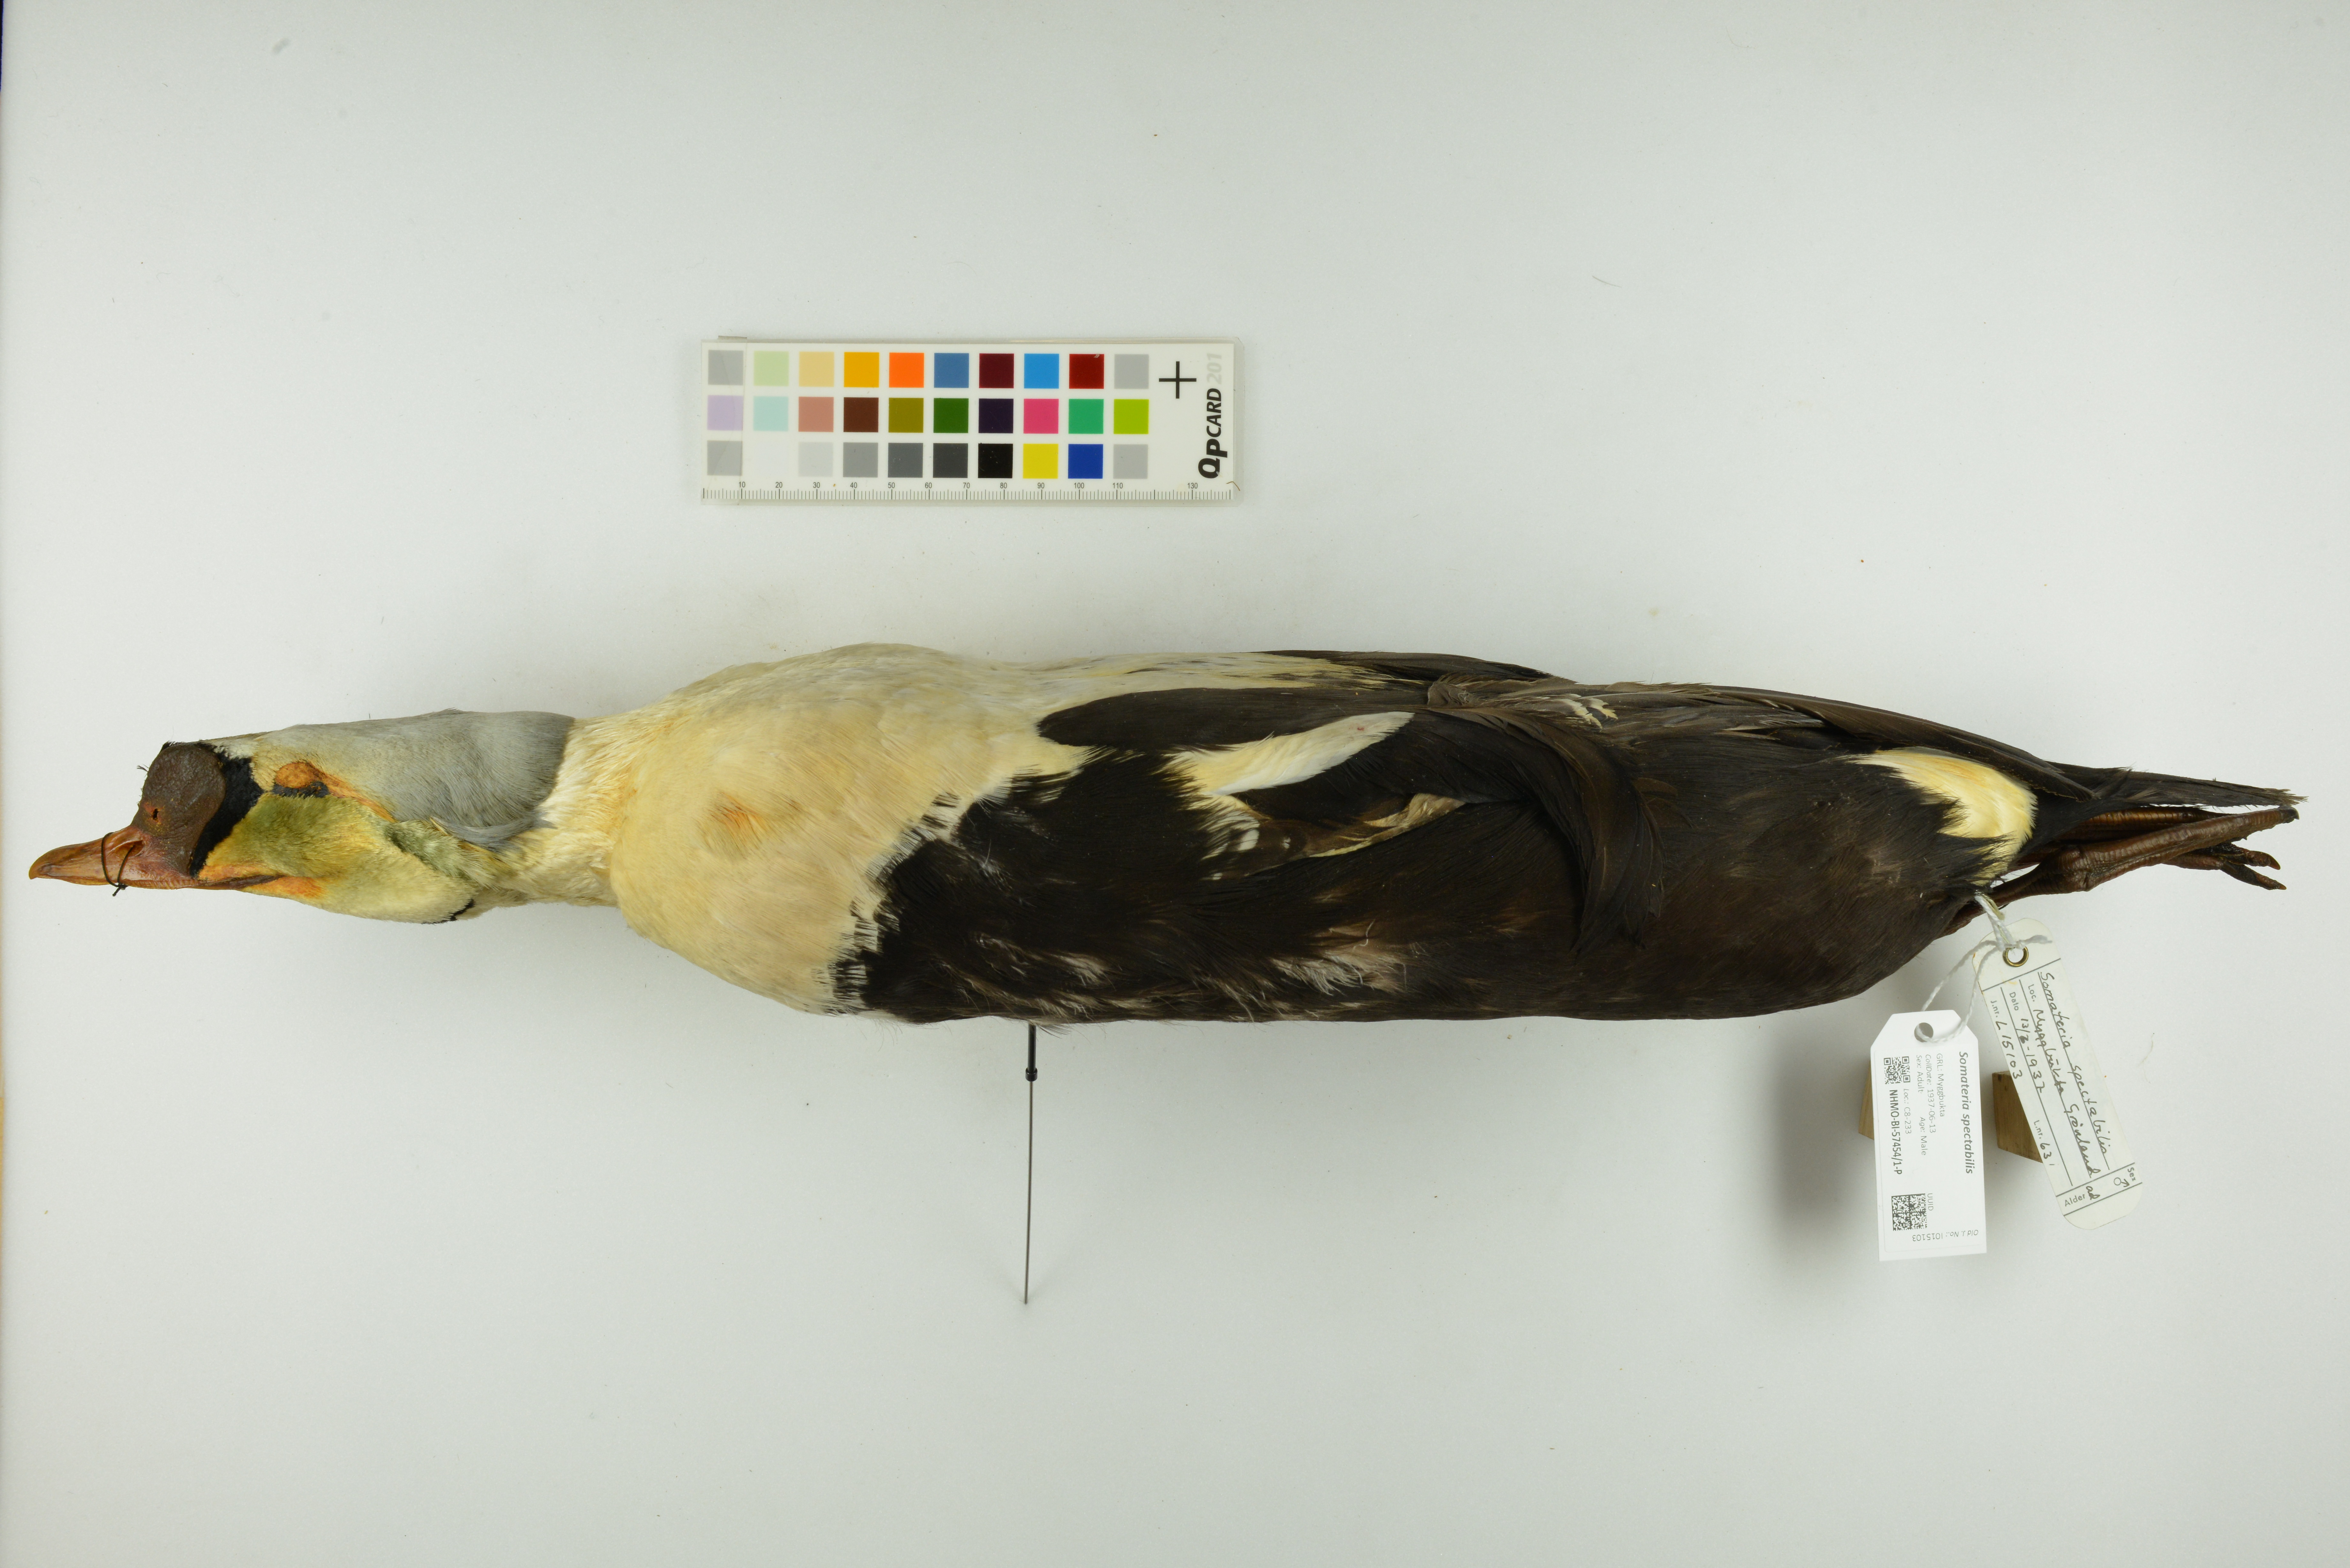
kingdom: Animalia
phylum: Chordata
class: Aves
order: Anseriformes
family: Anatidae
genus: Somateria
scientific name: Somateria spectabilis
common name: King eider
